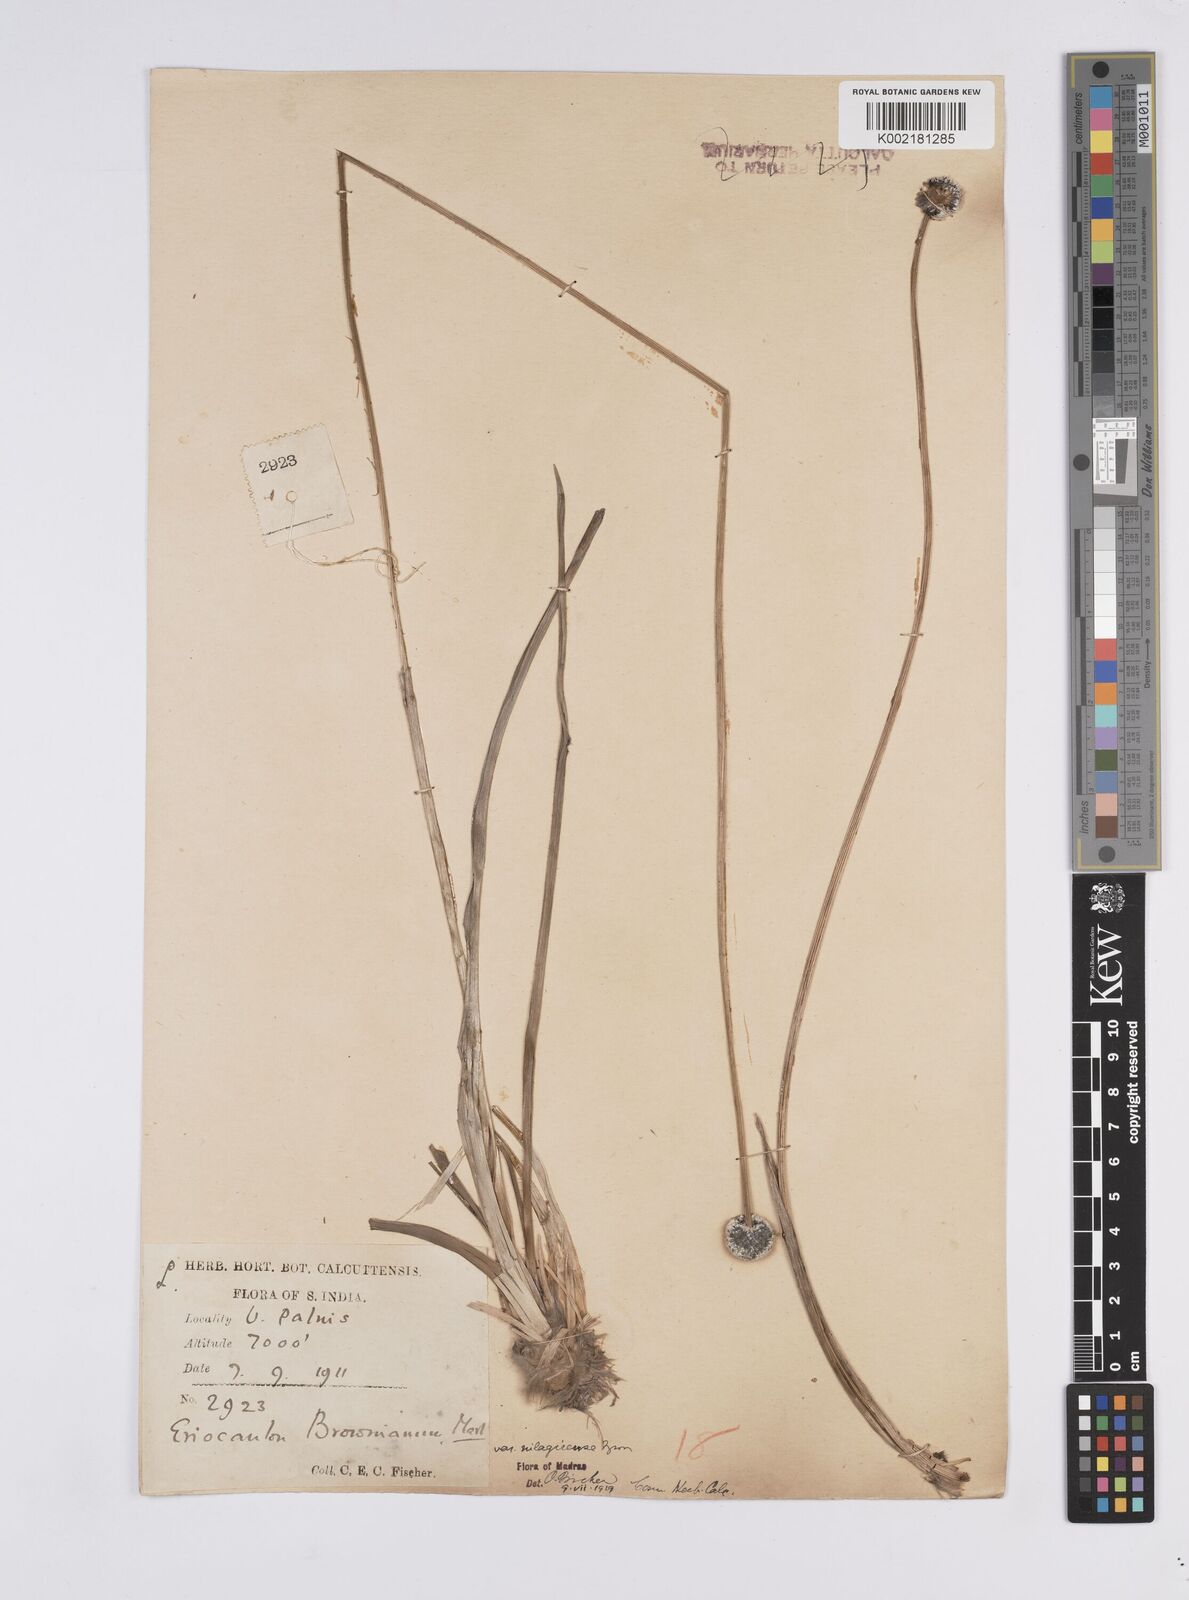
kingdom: Plantae
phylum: Tracheophyta
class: Liliopsida
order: Poales
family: Eriocaulaceae
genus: Eriocaulon
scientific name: Eriocaulon brownianum
